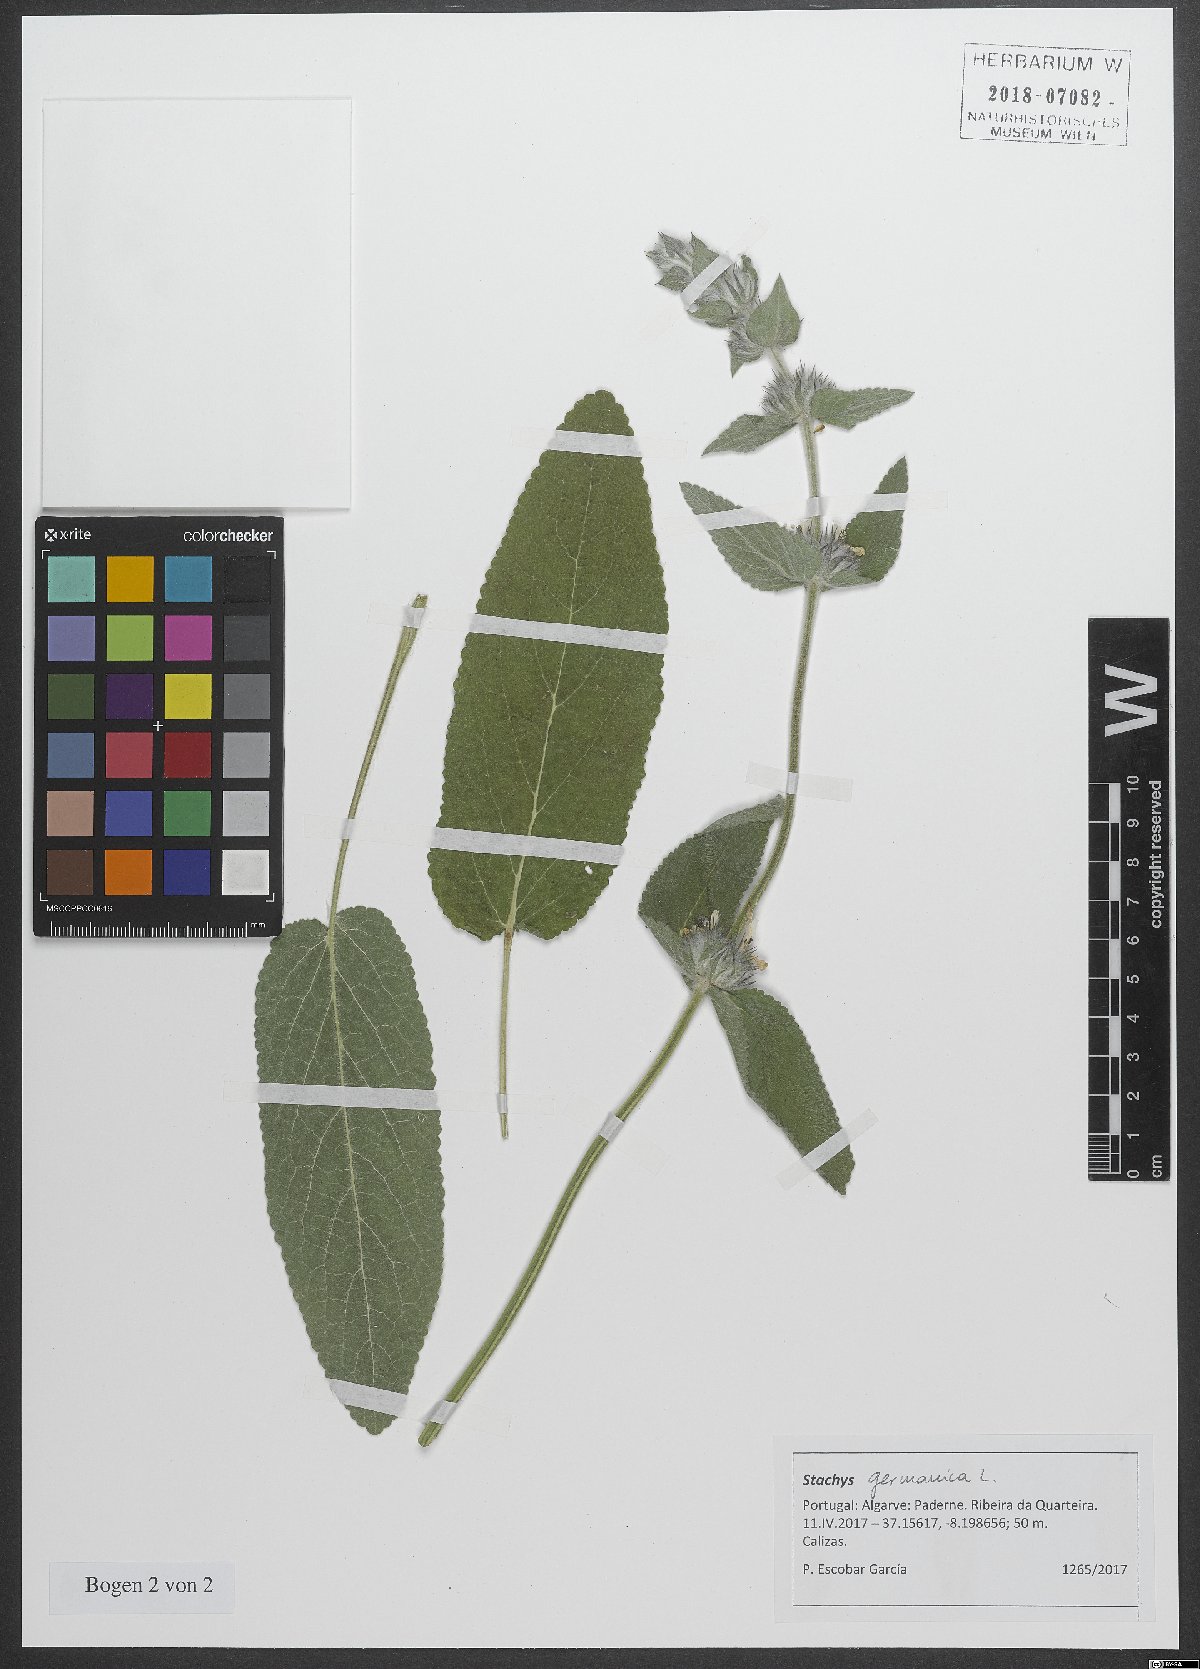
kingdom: Plantae
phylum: Tracheophyta
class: Magnoliopsida
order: Lamiales
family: Lamiaceae
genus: Stachys
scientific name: Stachys germanica
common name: Downy woundwort
